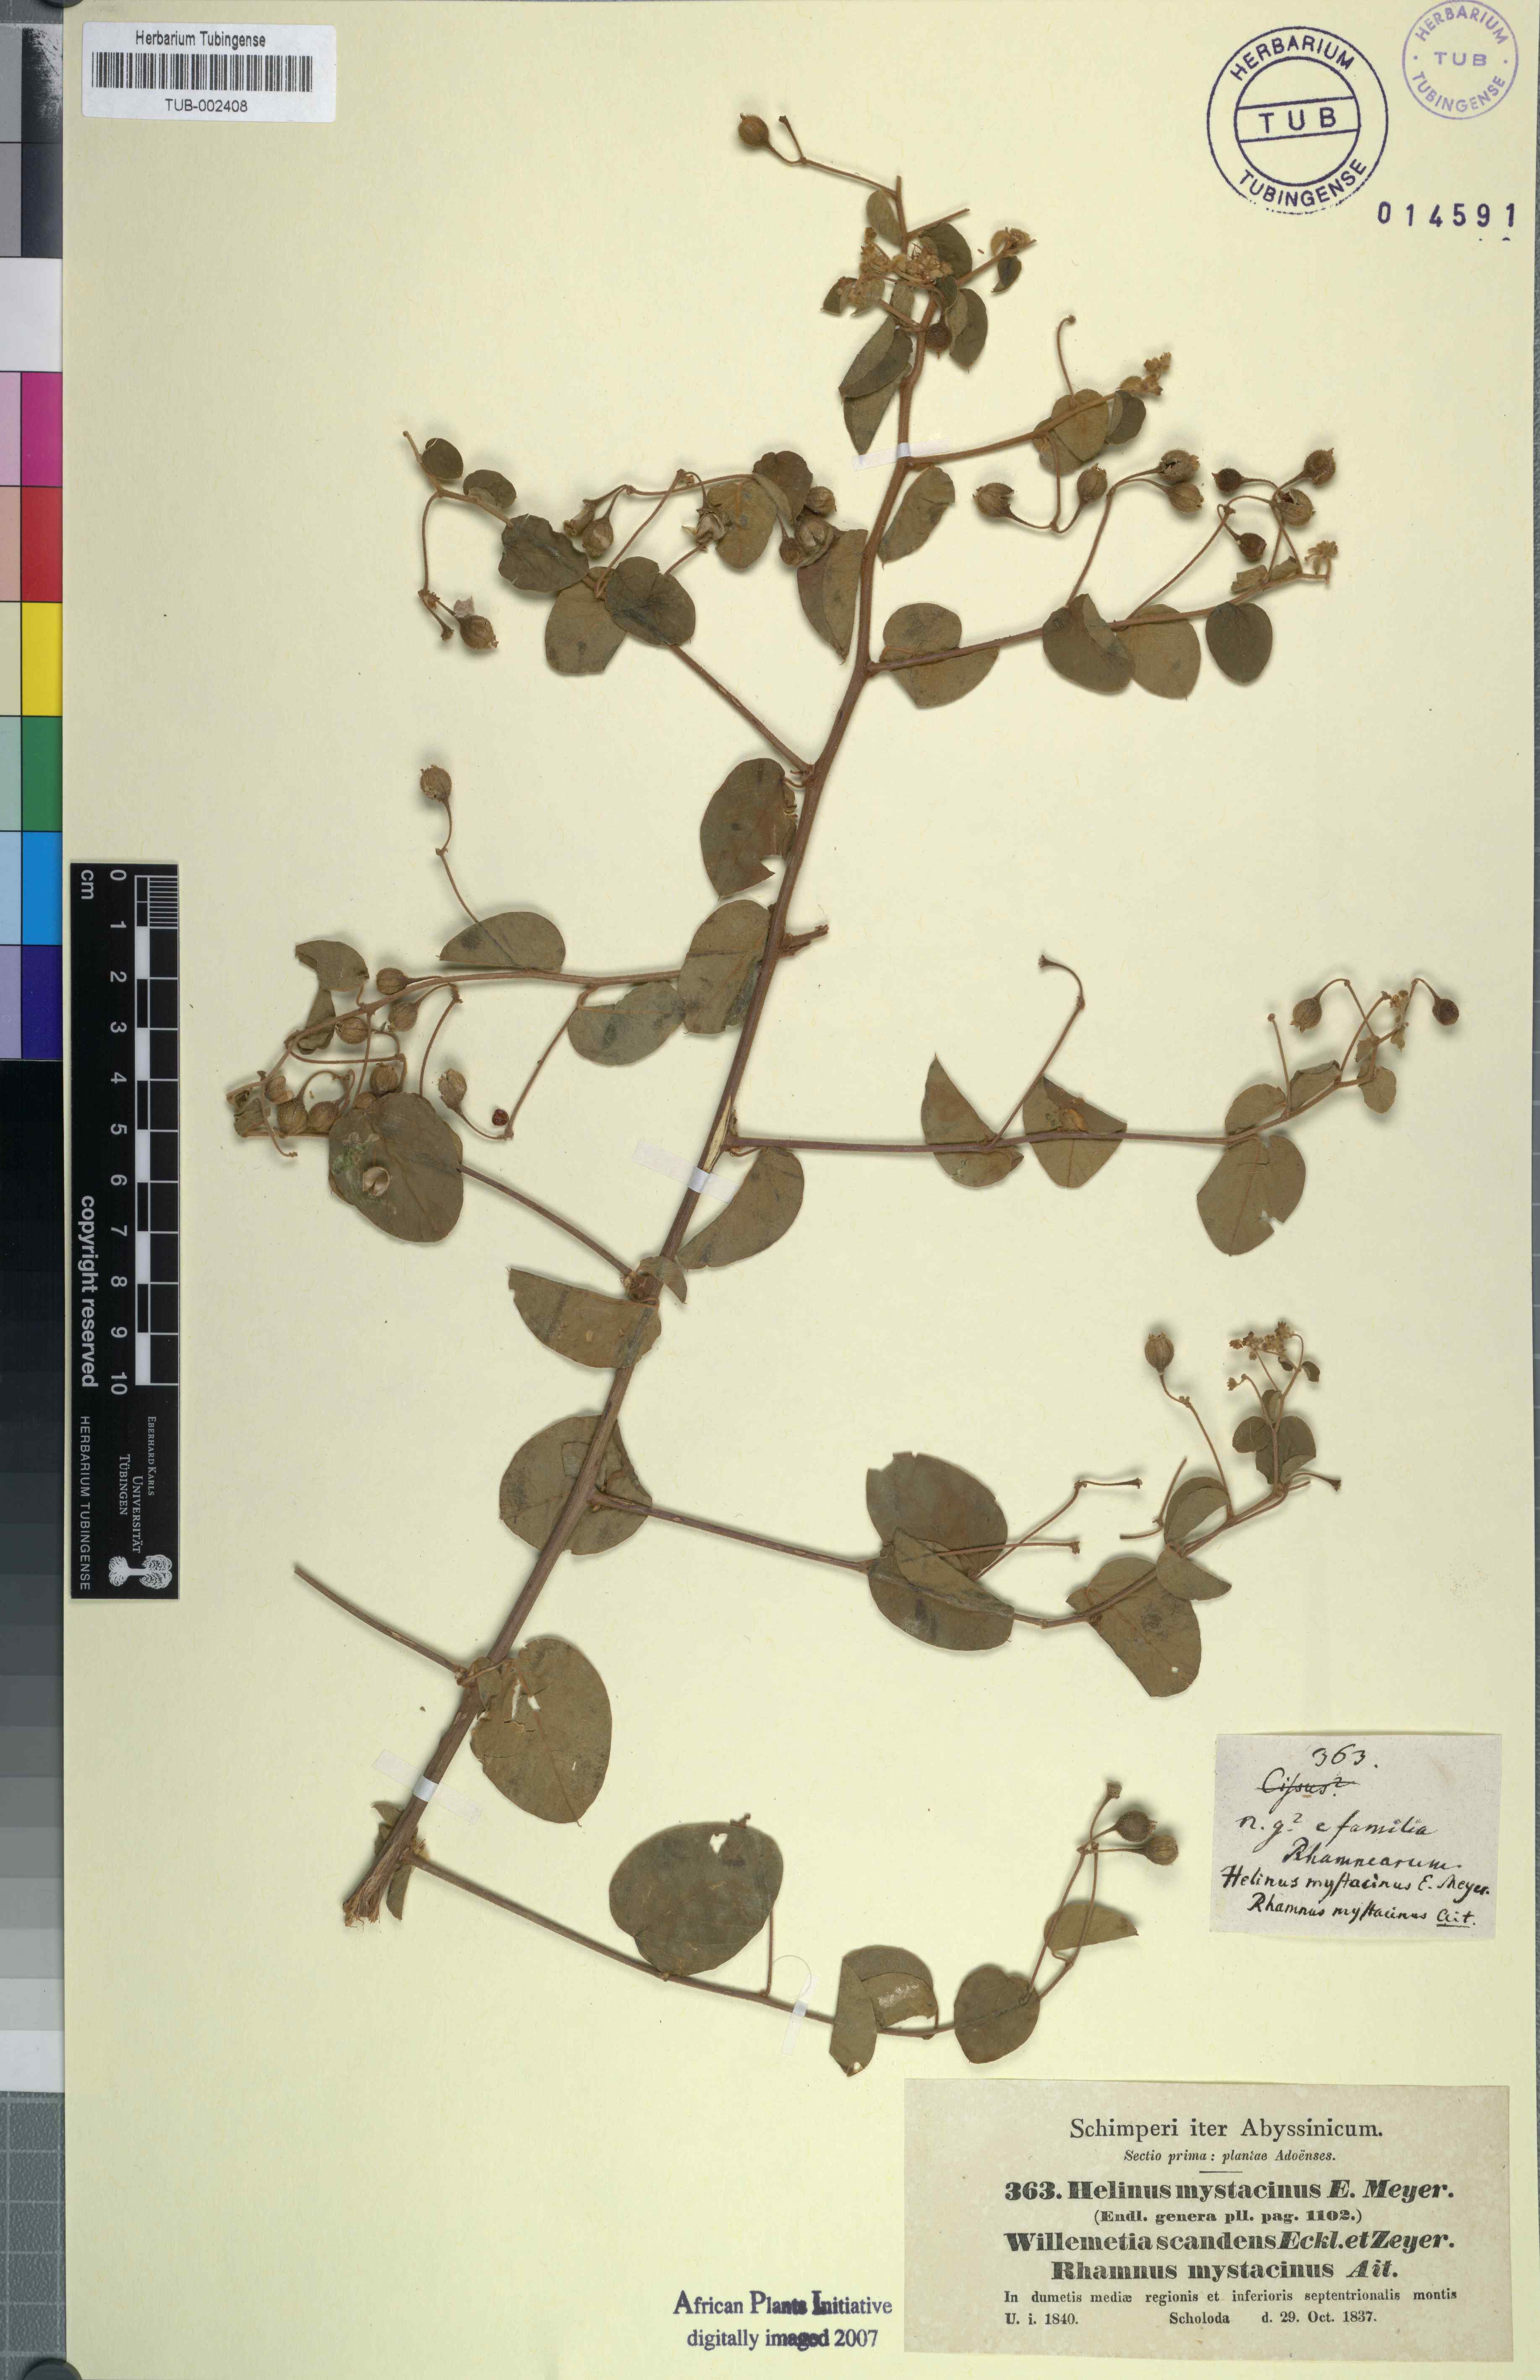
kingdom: Plantae
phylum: Tracheophyta
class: Magnoliopsida
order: Rosales
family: Rhamnaceae
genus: Helinus
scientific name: Helinus mystacinus
